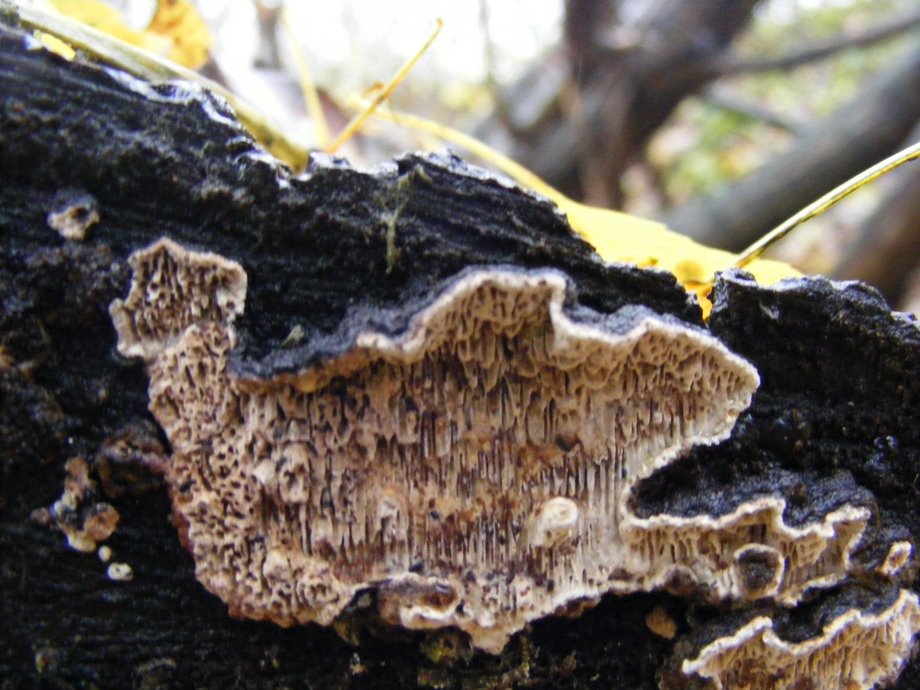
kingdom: Fungi
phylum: Basidiomycota
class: Agaricomycetes
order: Polyporales
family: Polyporaceae
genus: Podofomes
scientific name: Podofomes mollis
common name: blød begporesvamp
